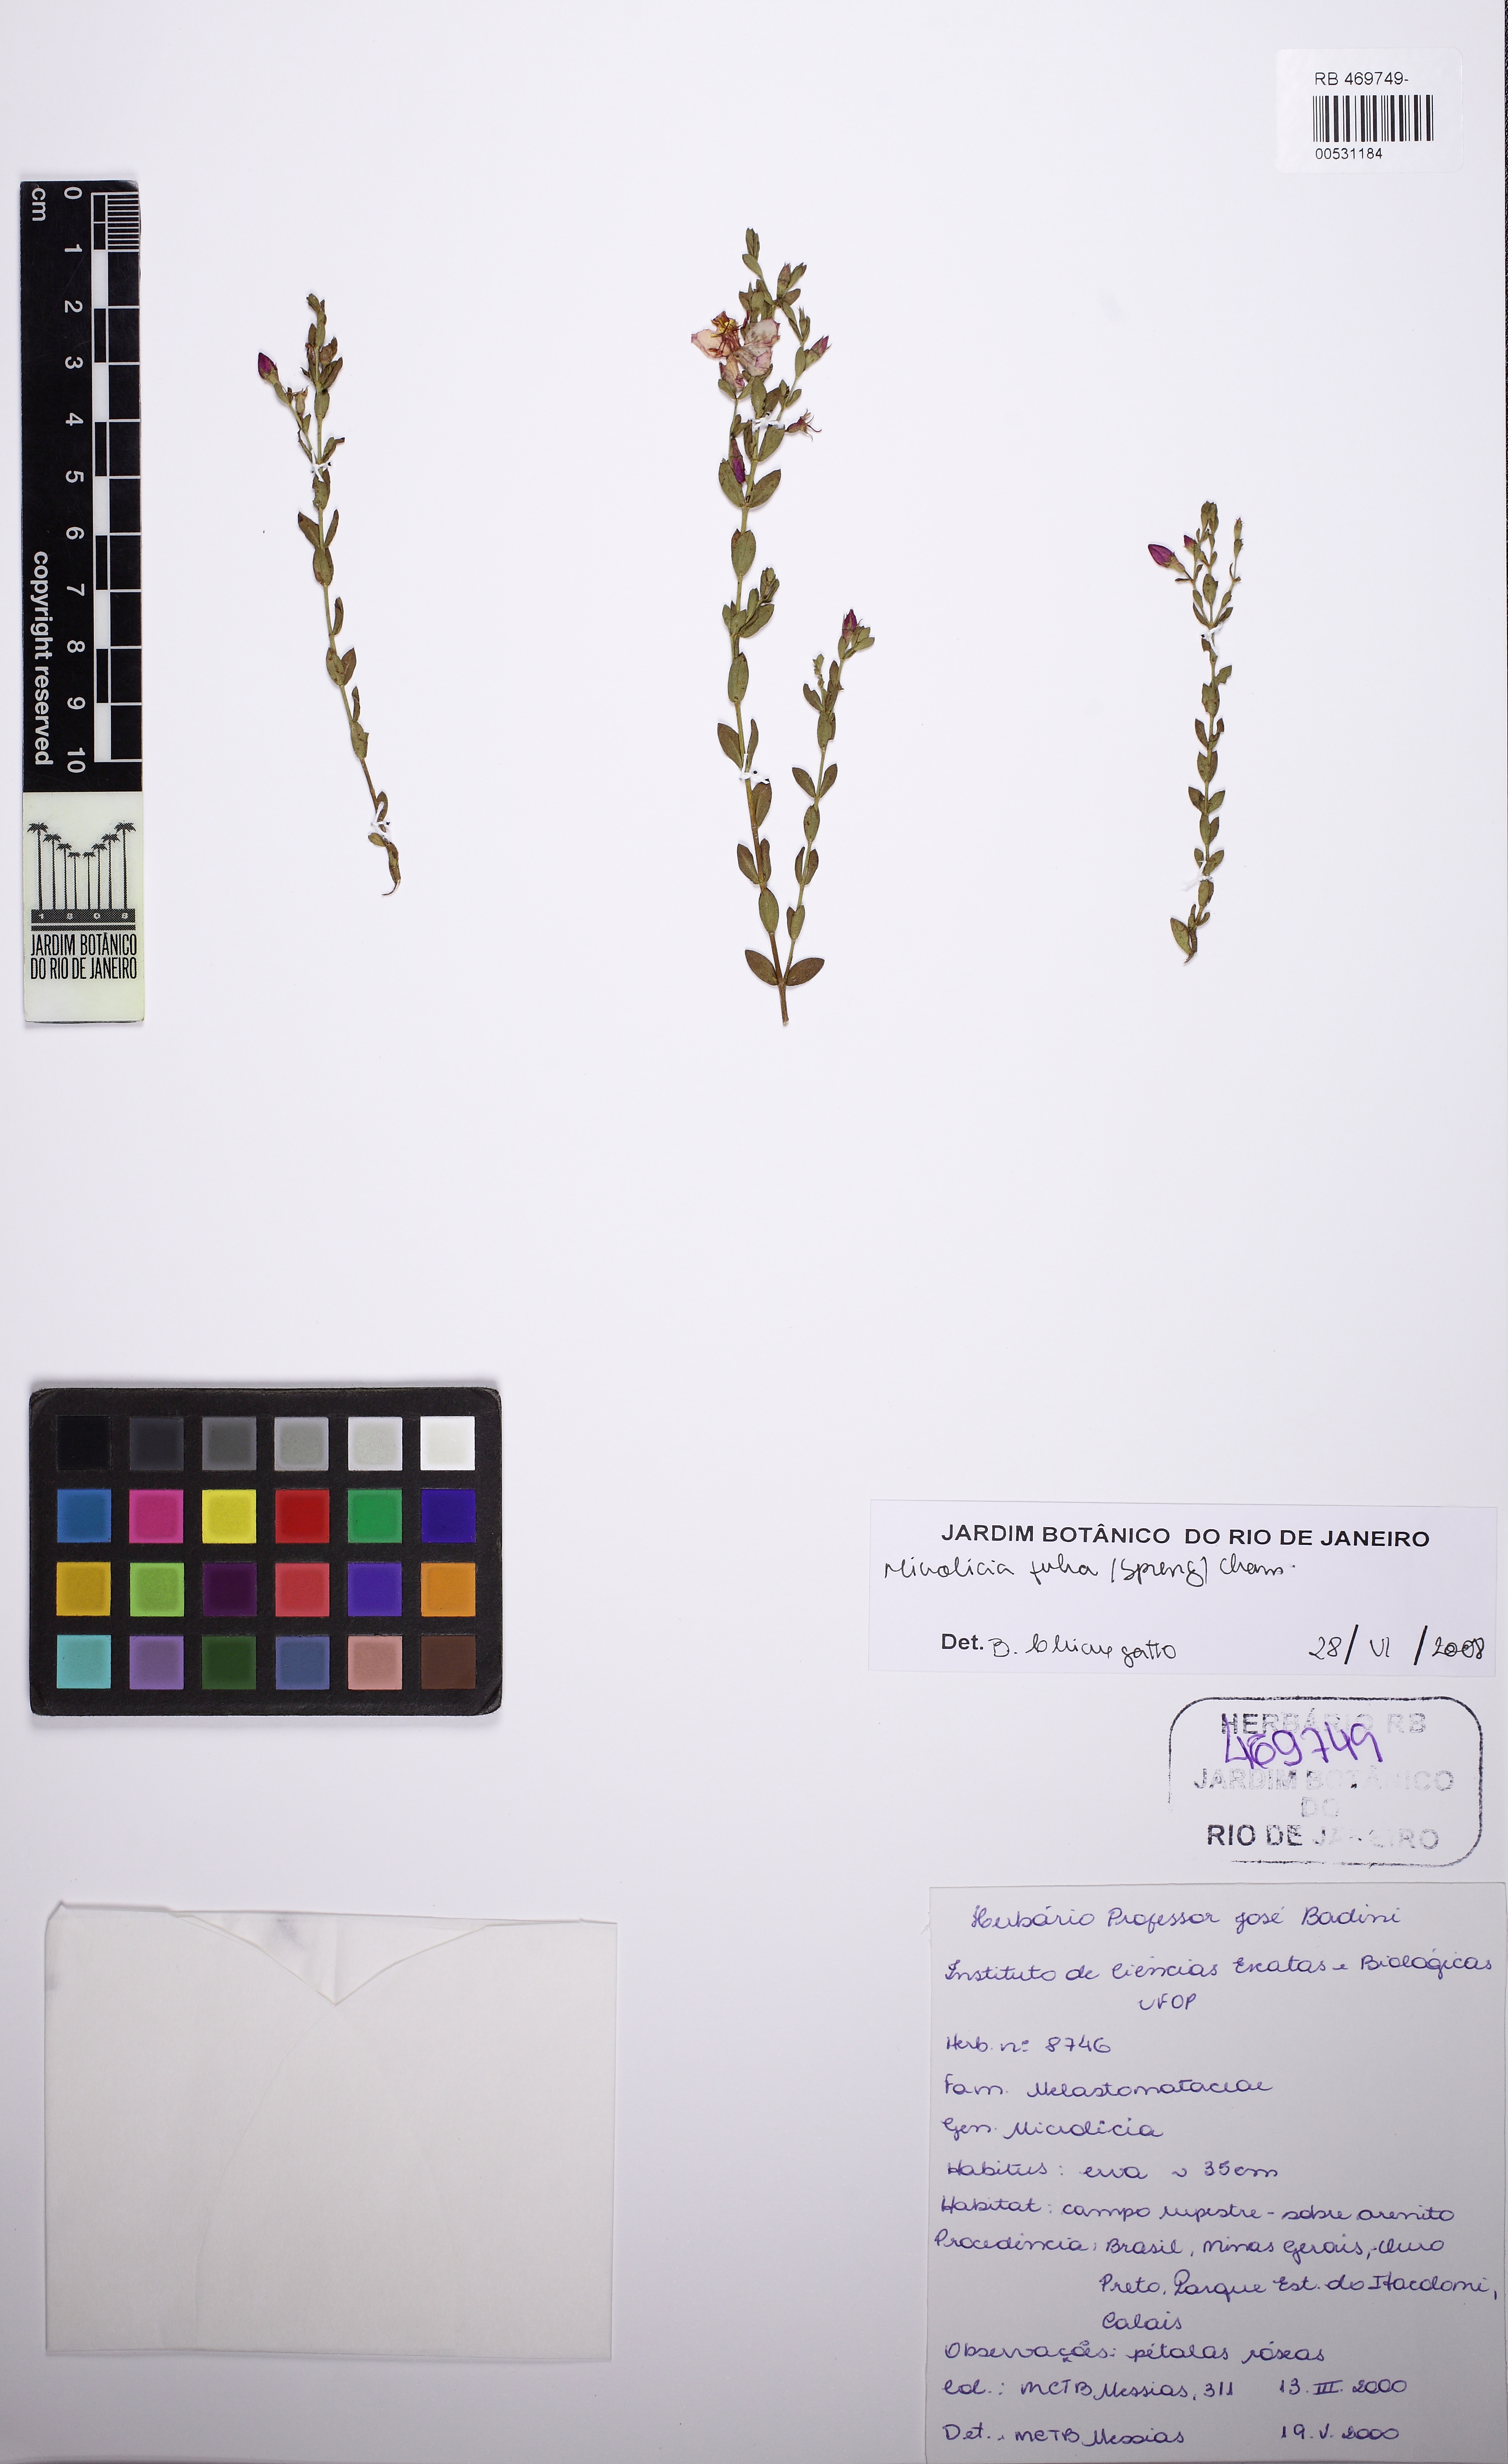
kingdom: Plantae
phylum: Tracheophyta
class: Magnoliopsida
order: Myrtales
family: Melastomataceae
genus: Microlicia
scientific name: Microlicia fulva
